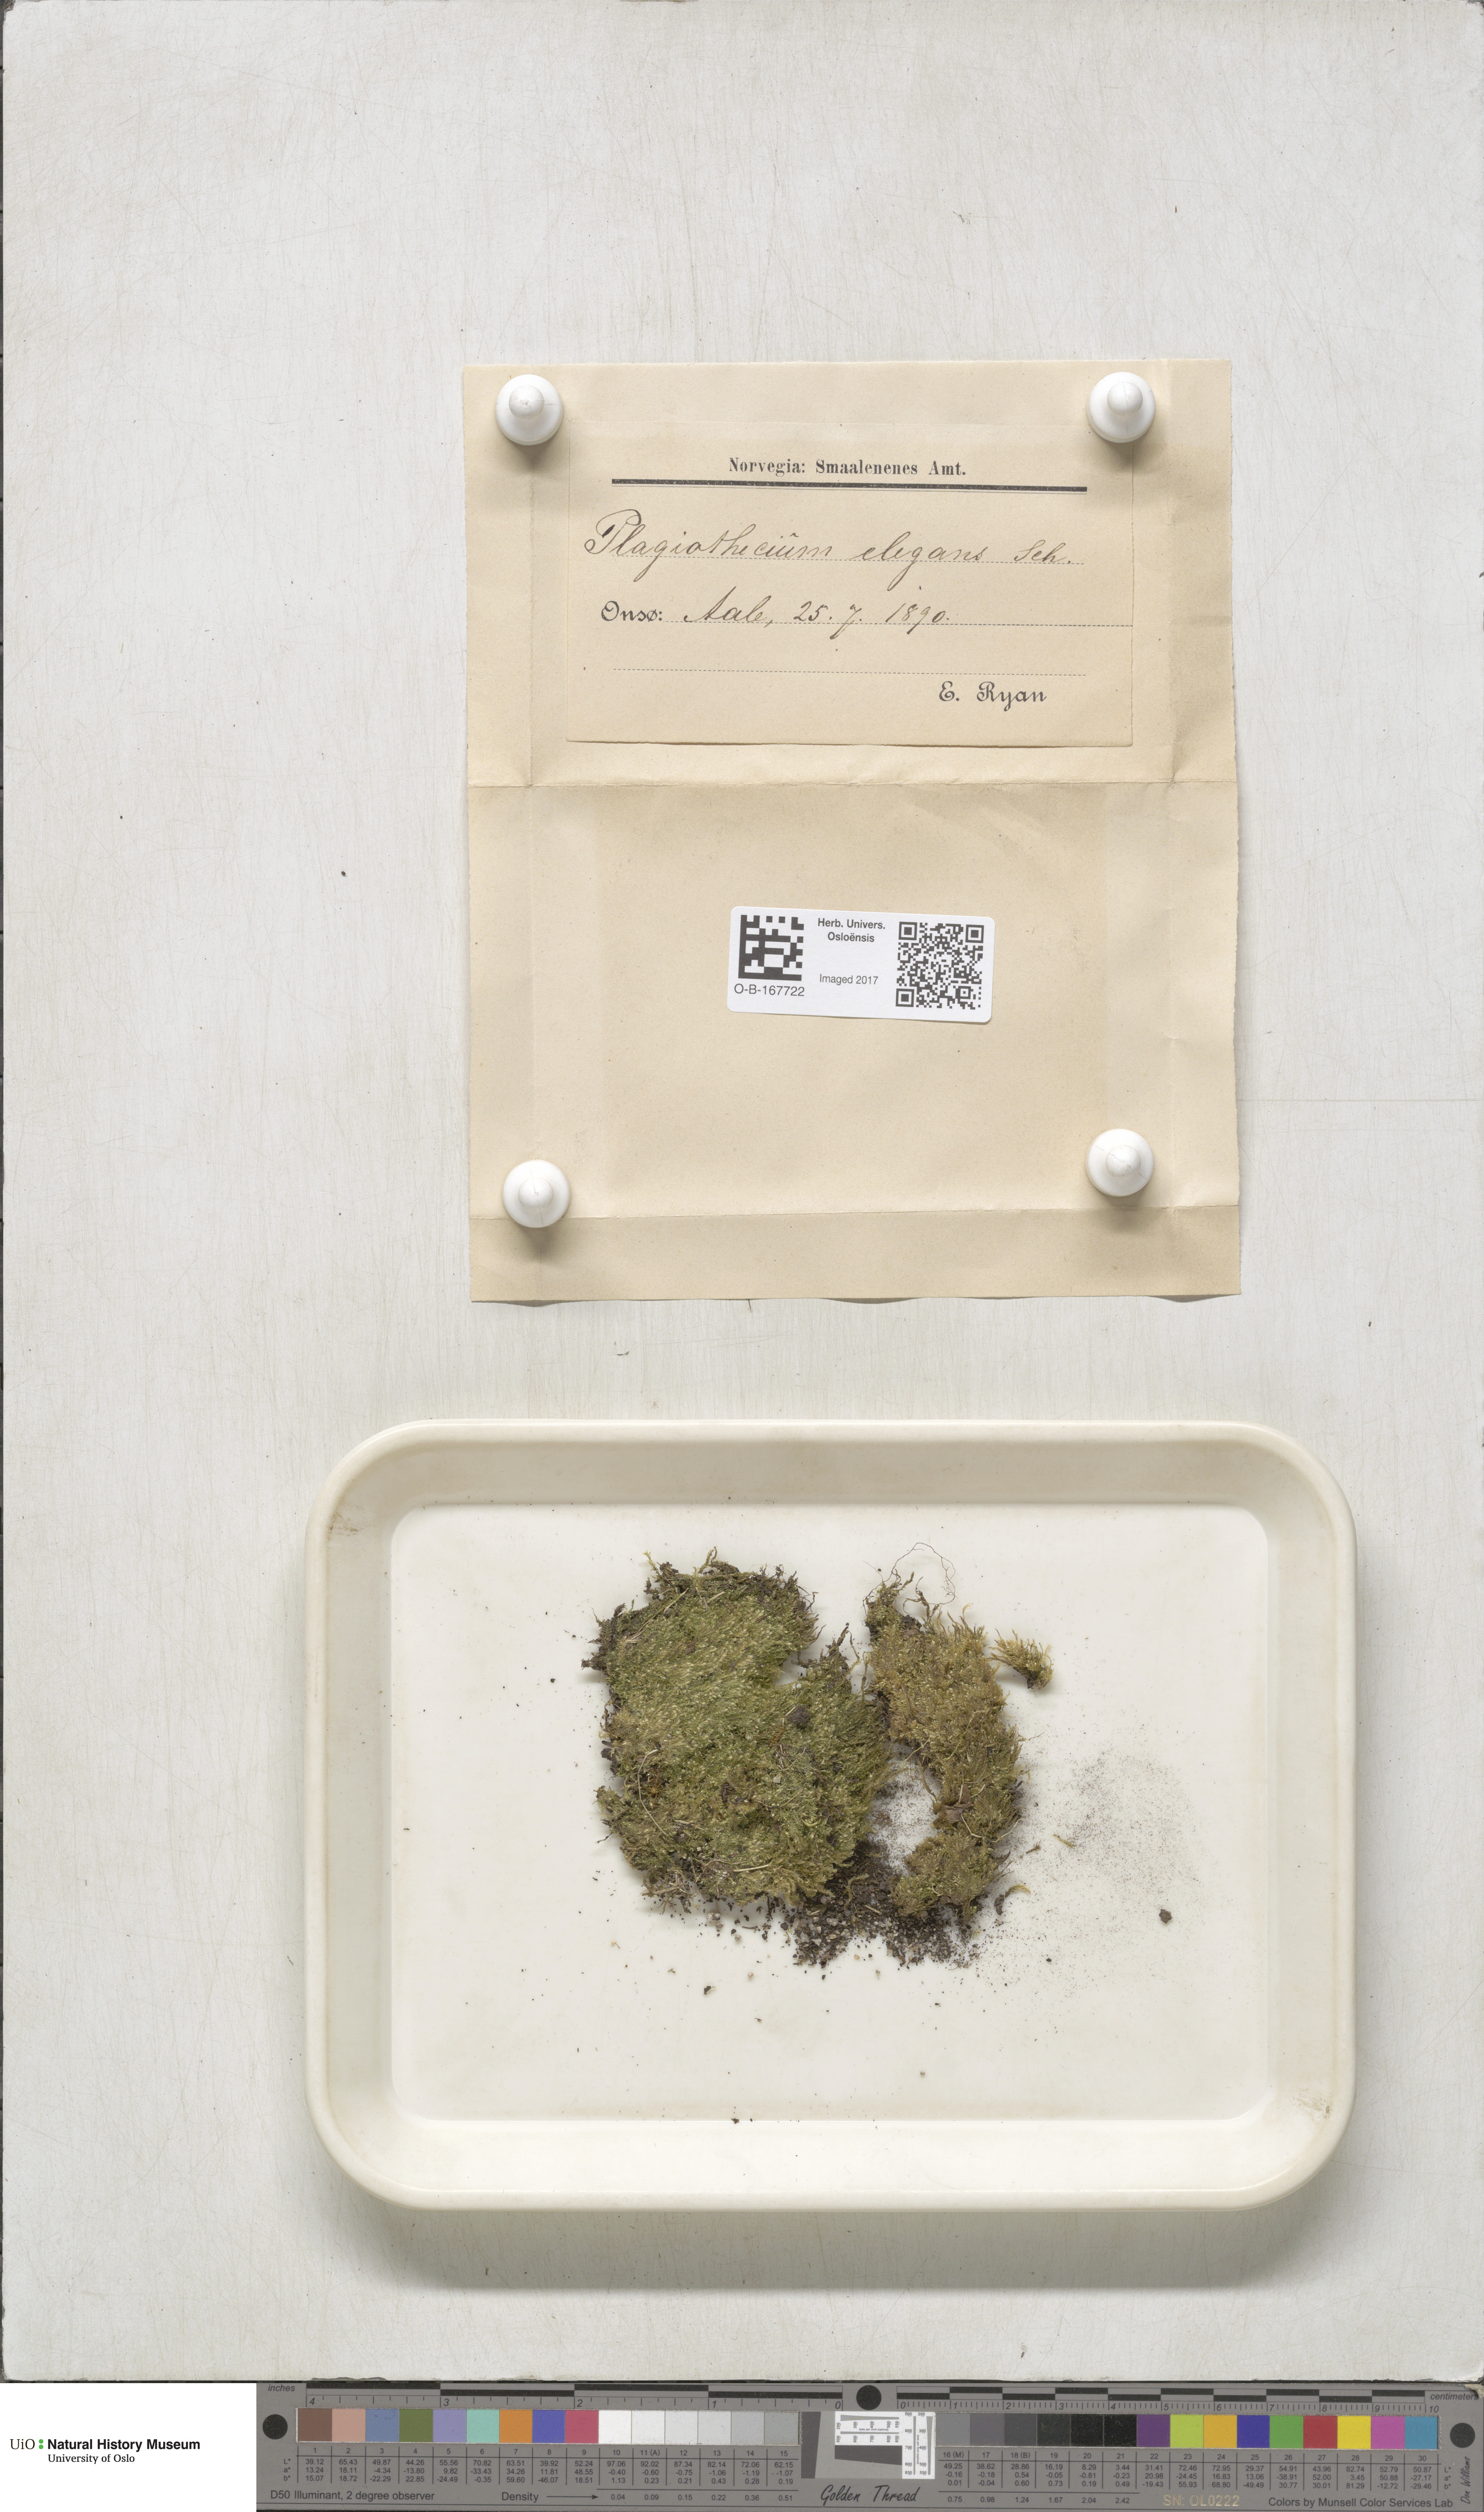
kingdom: Plantae
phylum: Bryophyta
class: Bryopsida
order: Hypnales
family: Plagiotheciaceae
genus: Pseudotaxiphyllum
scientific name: Pseudotaxiphyllum elegans
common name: Elegant silk moss
